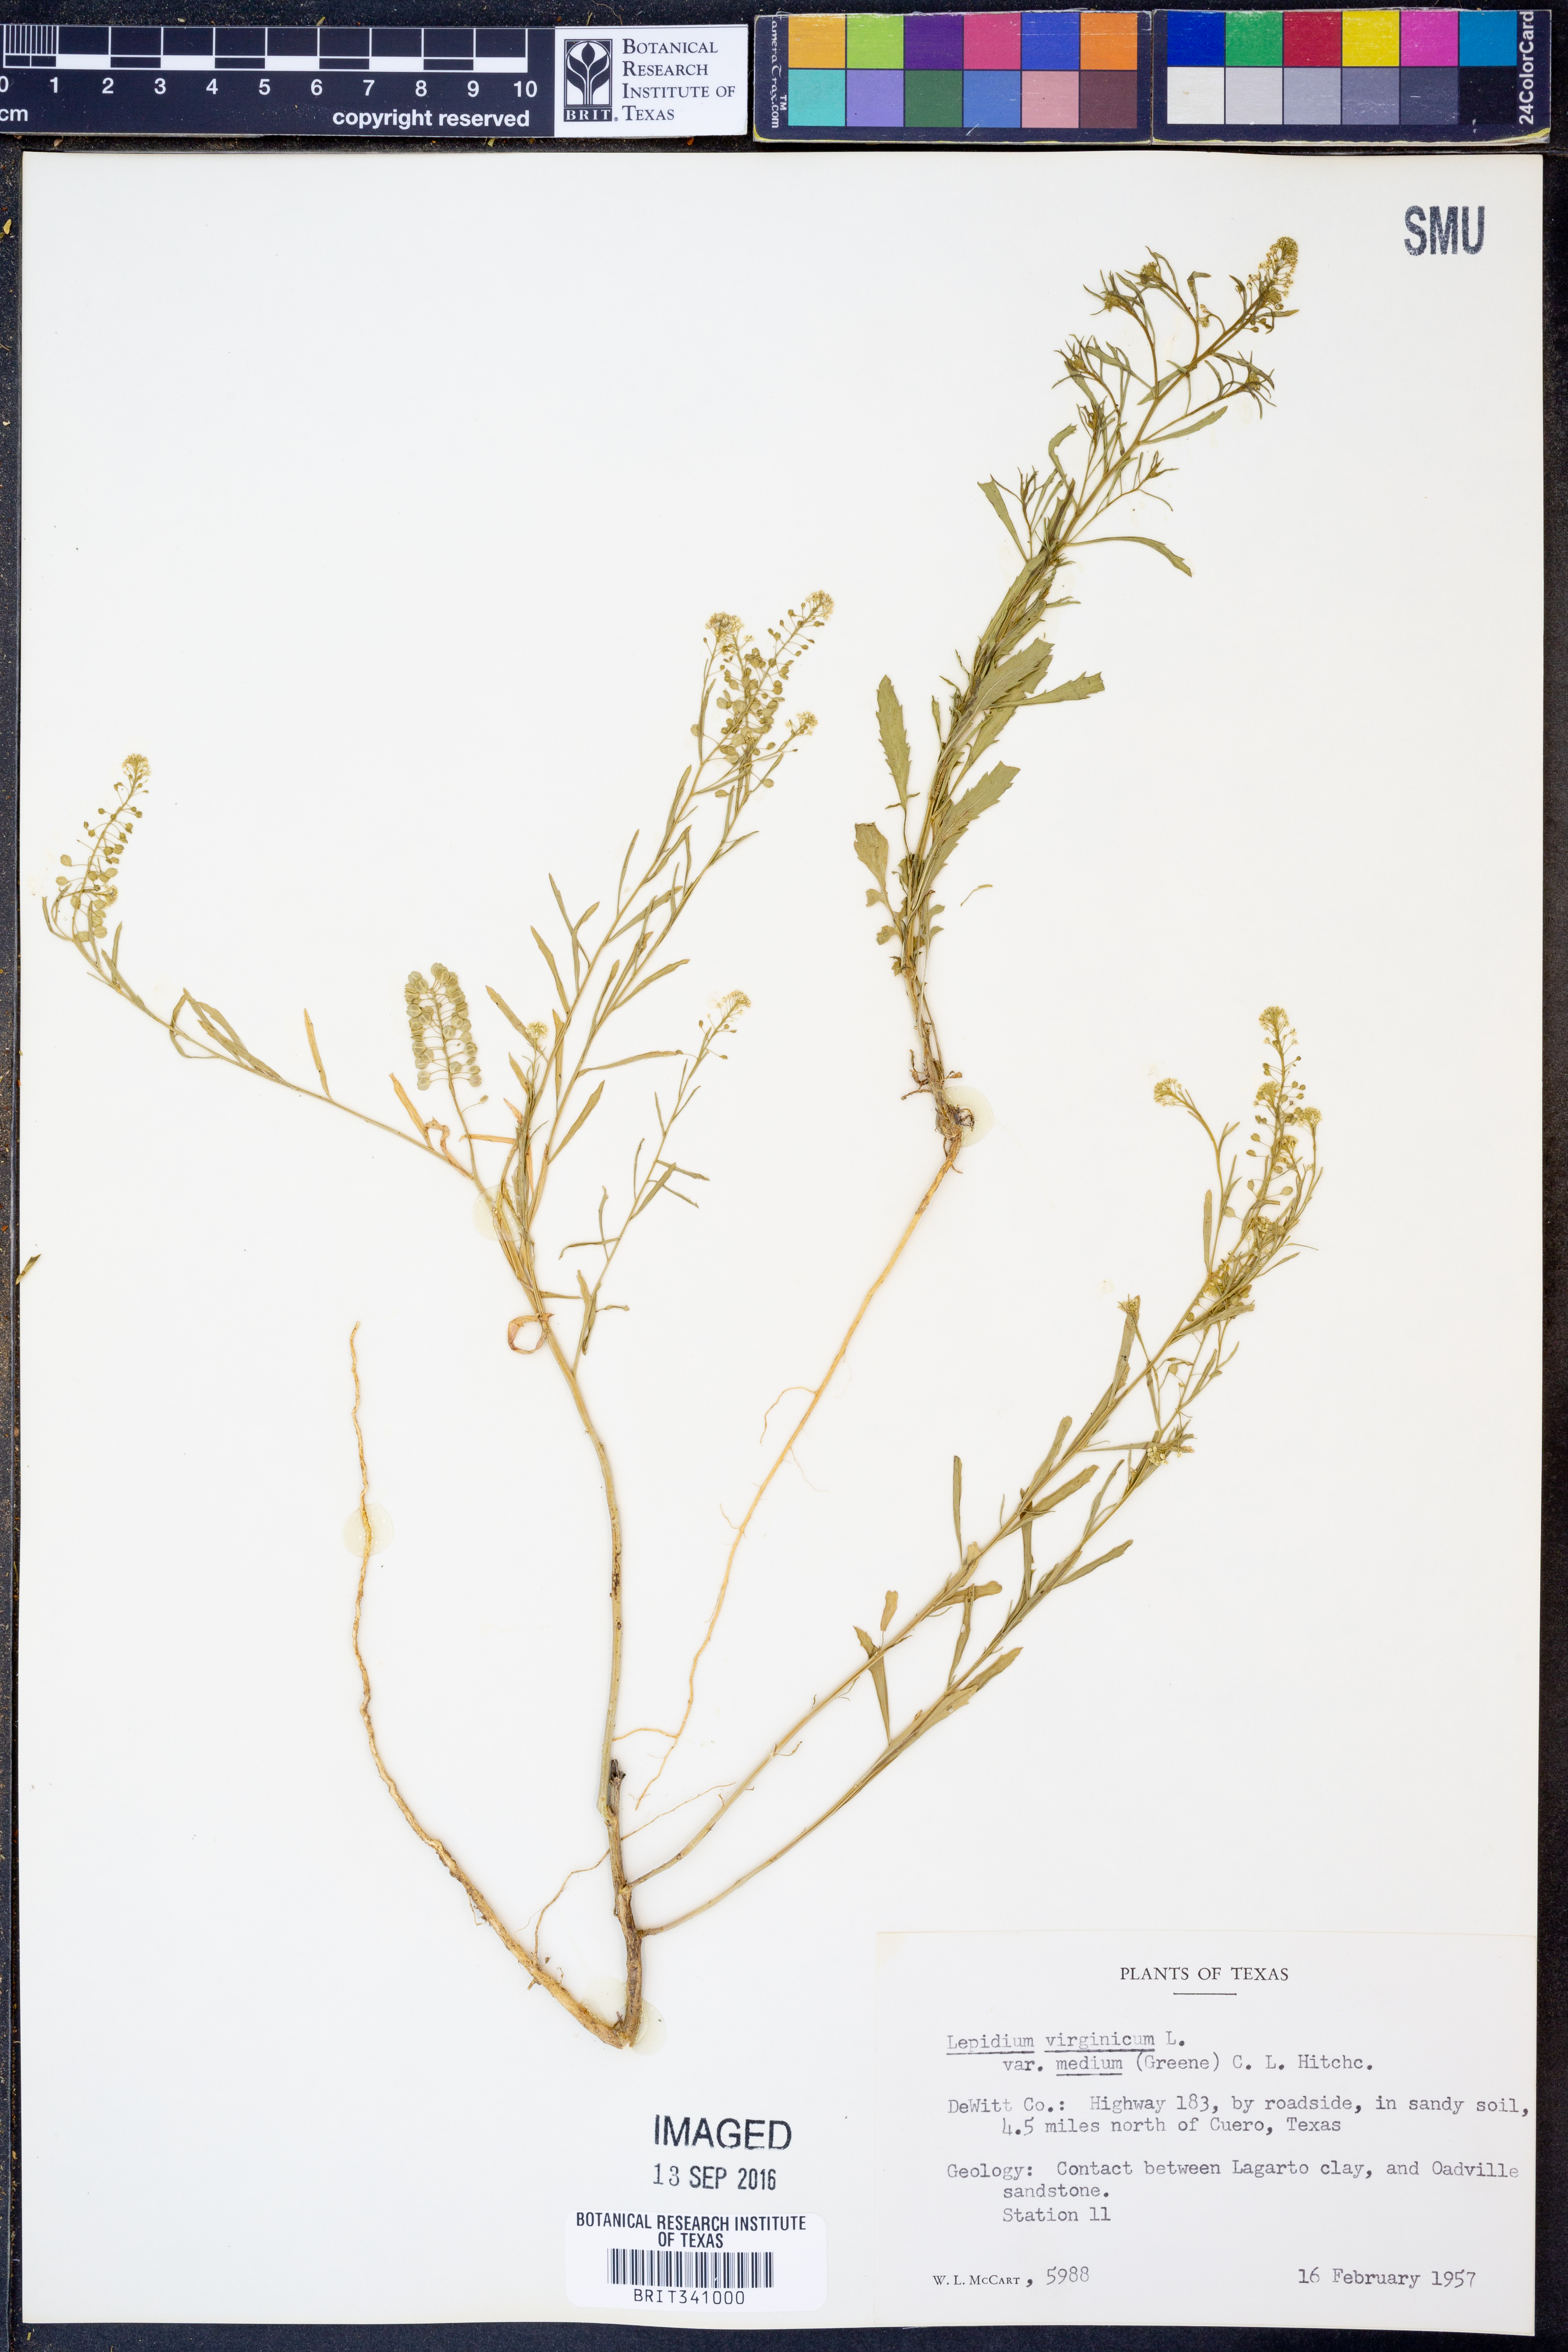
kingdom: Plantae
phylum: Tracheophyta
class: Magnoliopsida
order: Brassicales
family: Brassicaceae
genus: Lepidium
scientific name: Lepidium virginicum
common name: Least pepperwort
